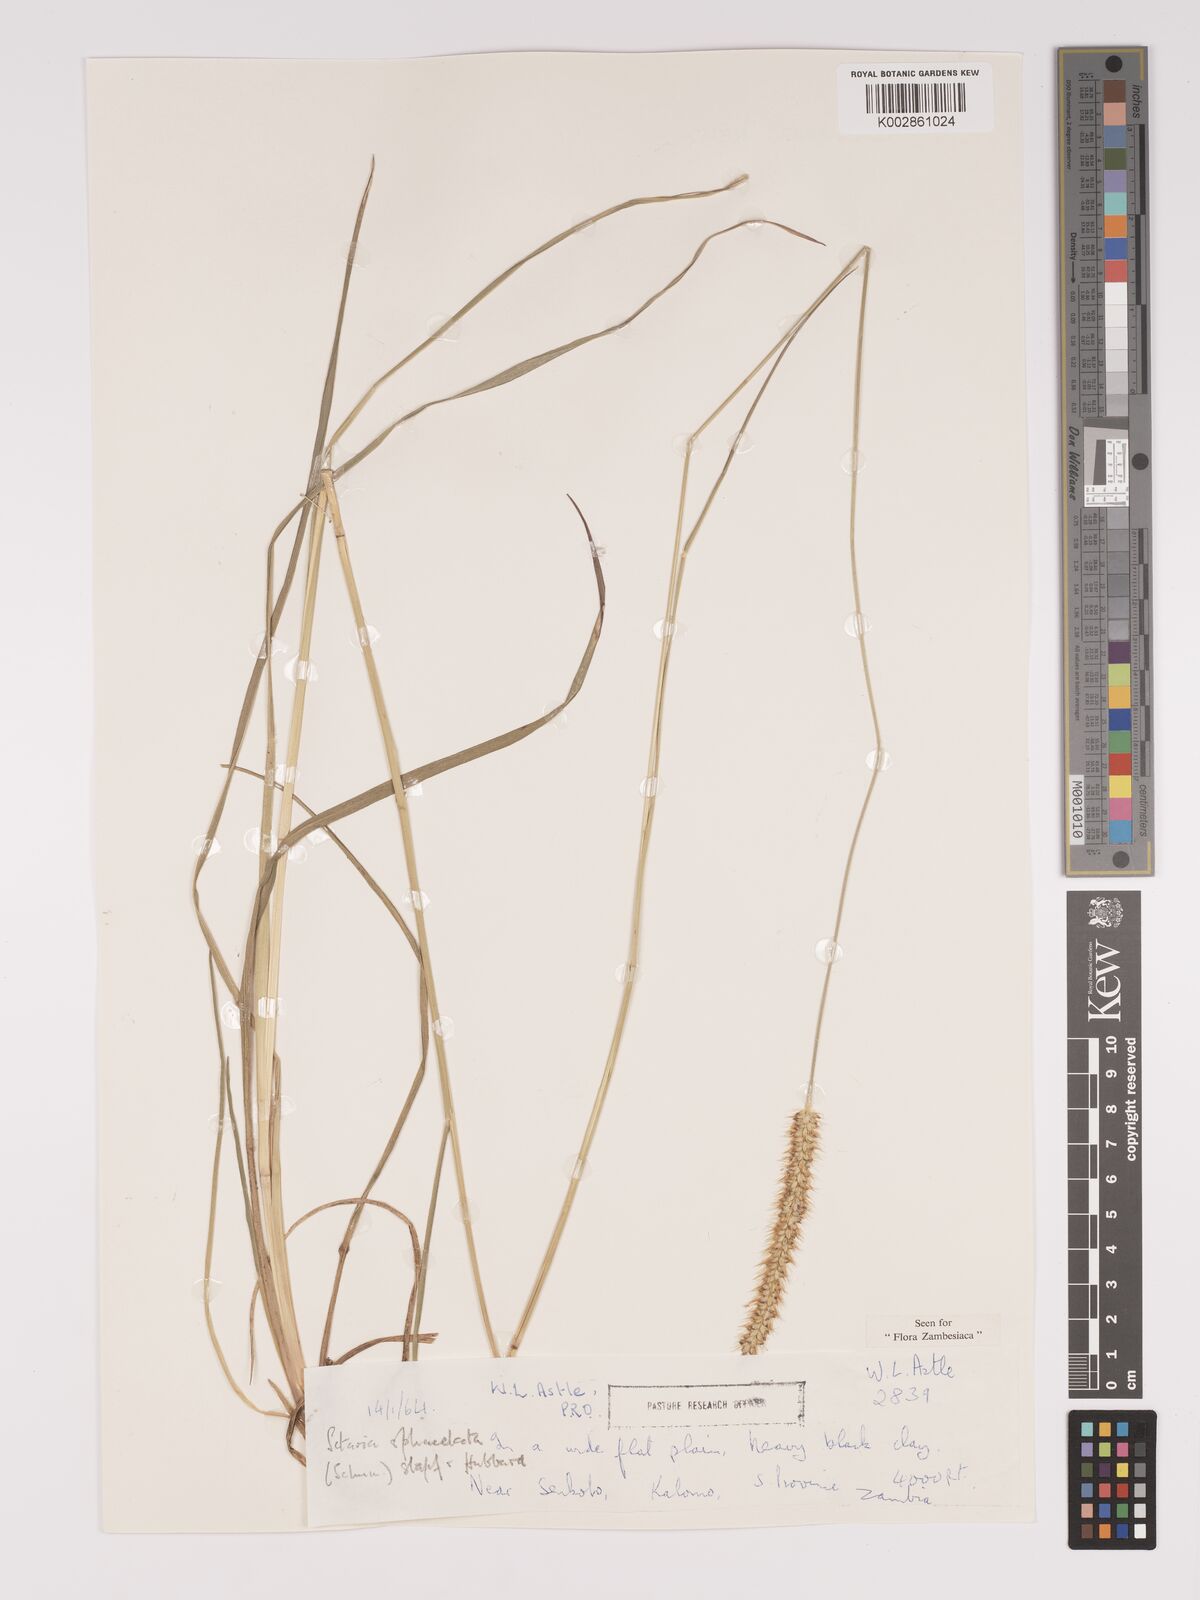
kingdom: Plantae
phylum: Tracheophyta
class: Liliopsida
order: Poales
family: Poaceae
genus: Setaria
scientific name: Setaria sphacelata
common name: African bristlegrass
